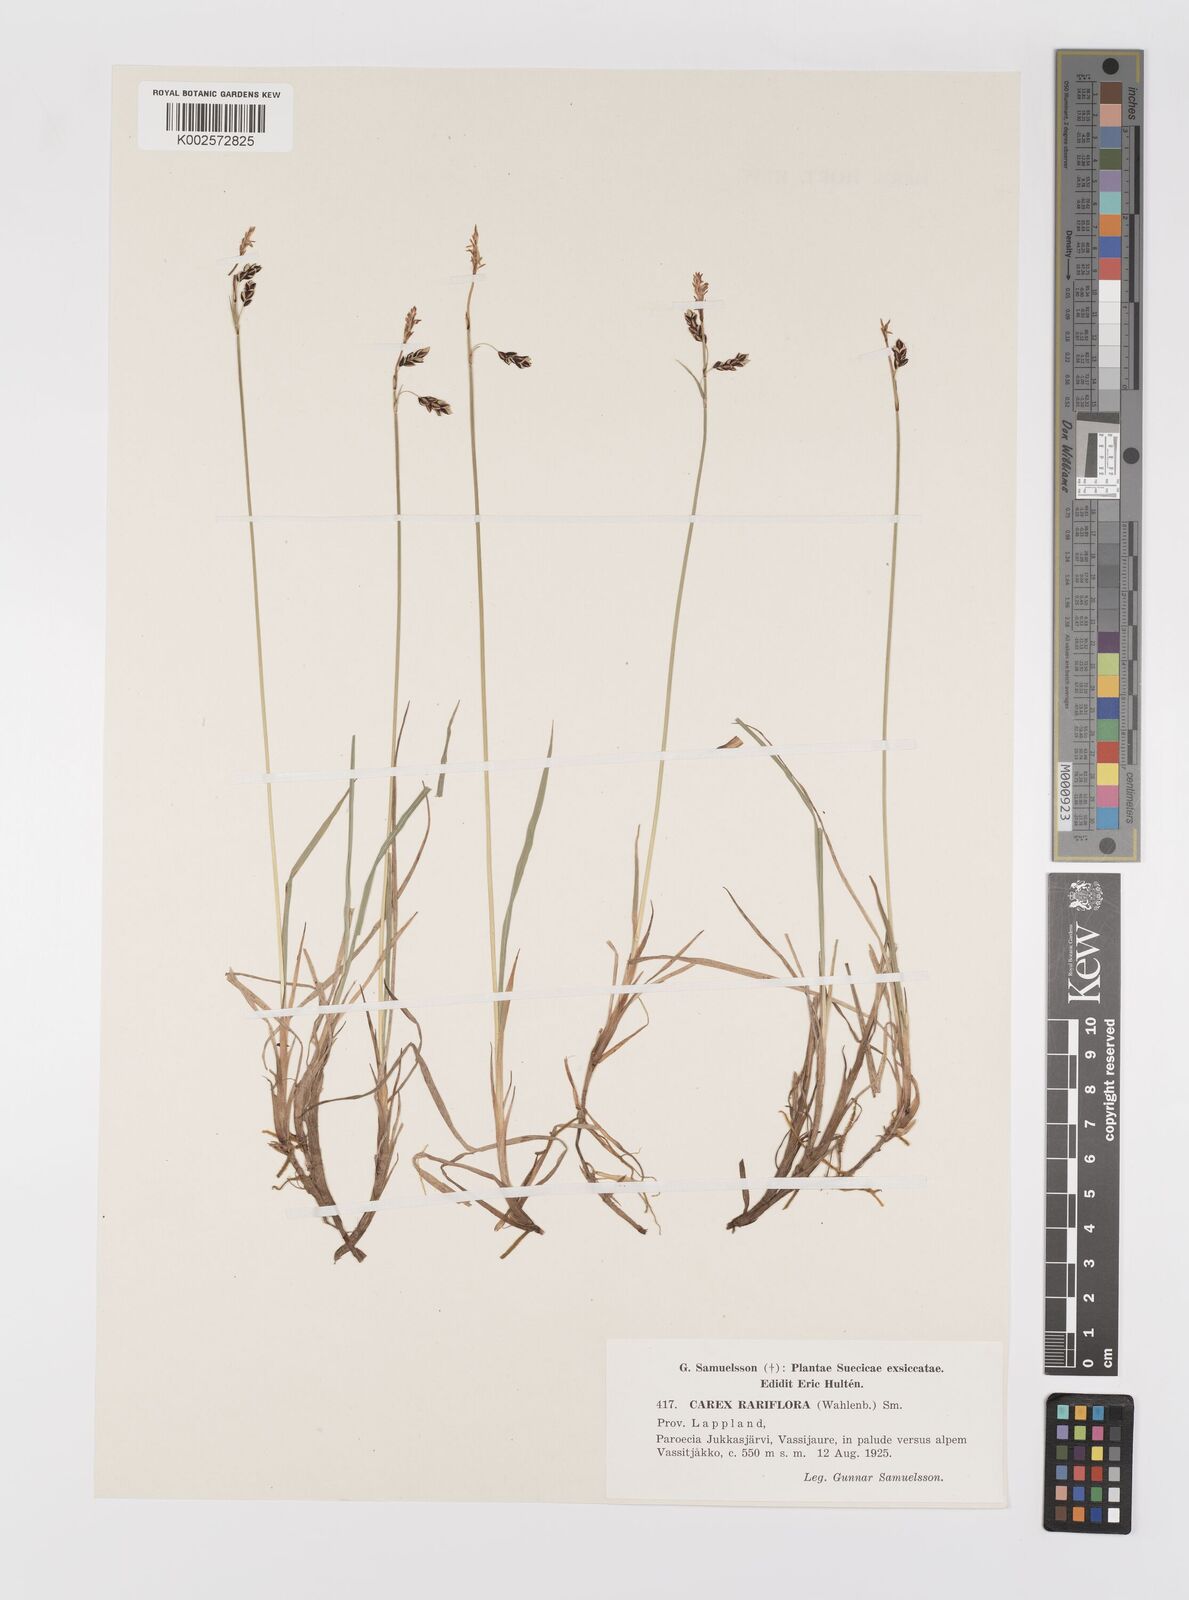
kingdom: Plantae
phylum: Tracheophyta
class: Liliopsida
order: Poales
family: Cyperaceae
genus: Carex
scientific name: Carex rariflora
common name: Loose-flowered alpine sedge
